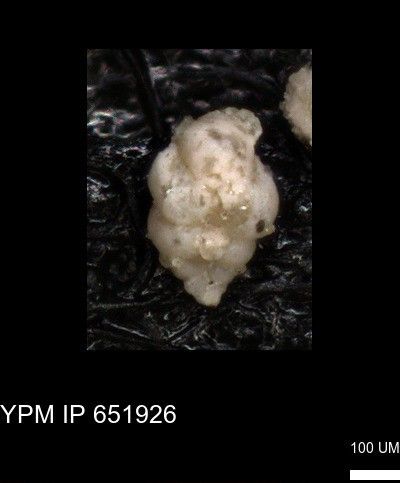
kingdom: Chromista
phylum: Foraminifera
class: Globothalamea
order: Rotaliida
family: Heterohelicidae
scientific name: Heterohelicidae
